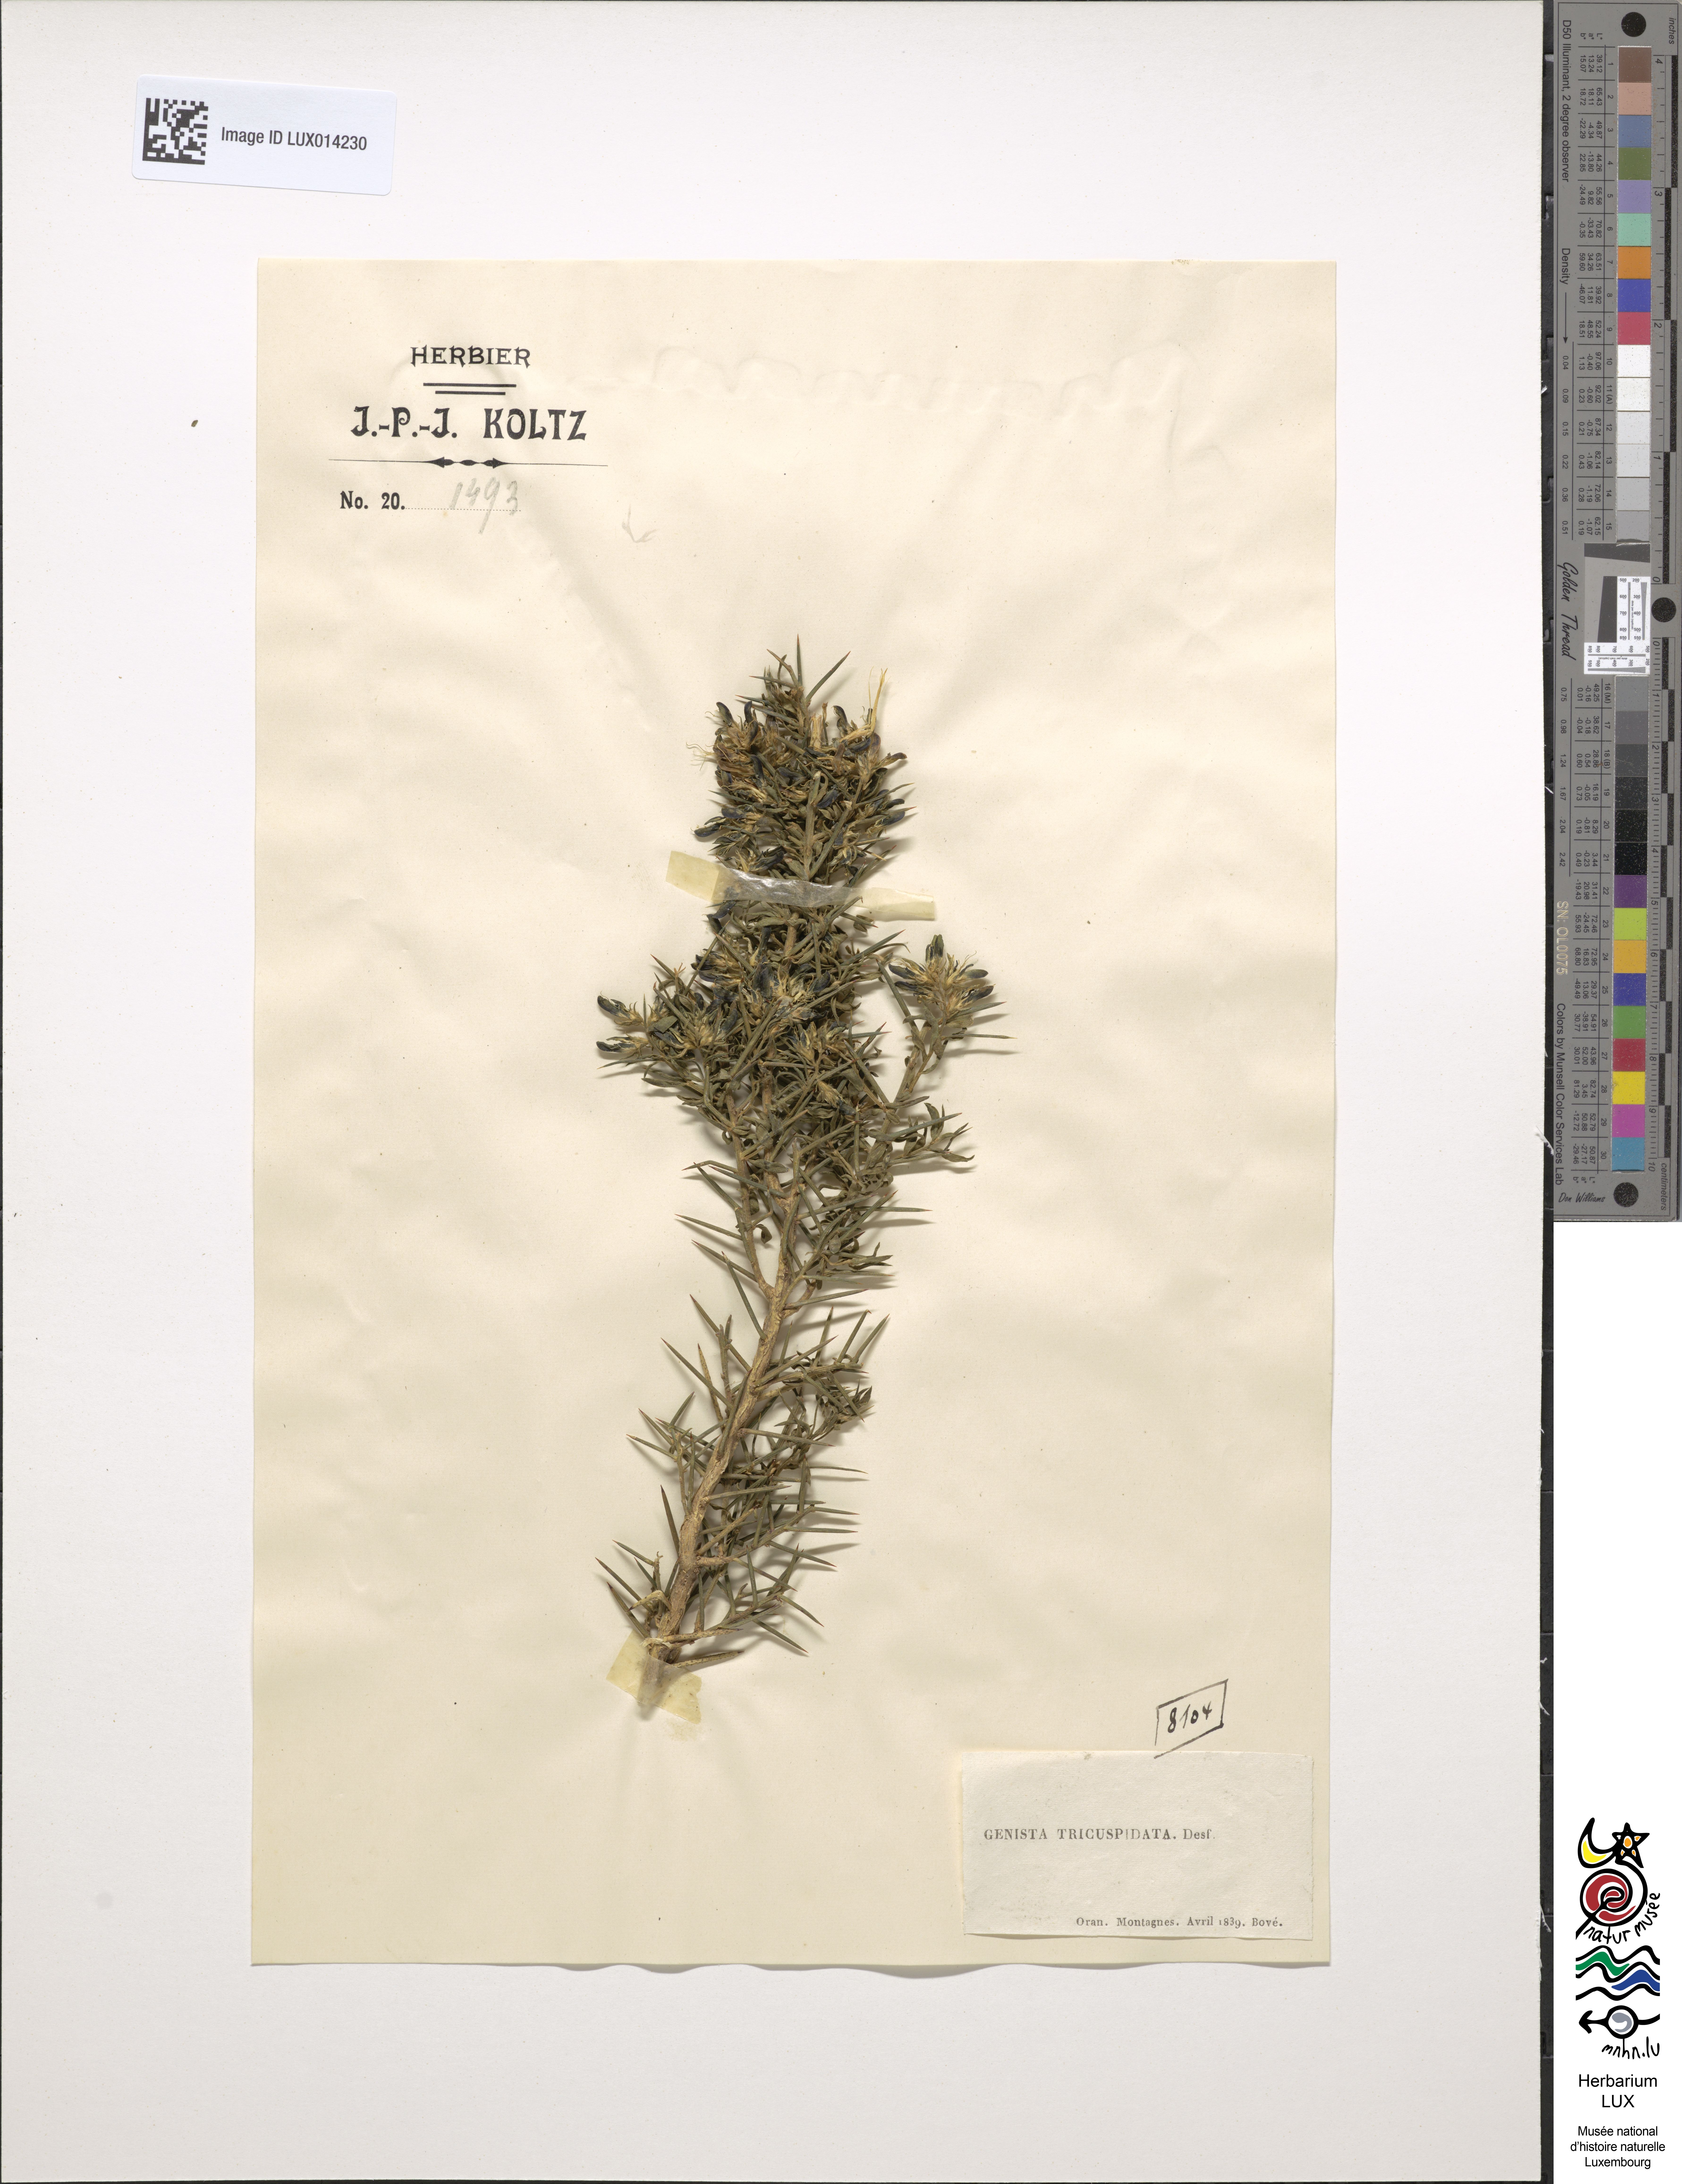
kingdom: Plantae
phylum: Tracheophyta
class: Magnoliopsida
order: Fabales
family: Fabaceae
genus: Genista
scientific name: Genista tricuspidata
